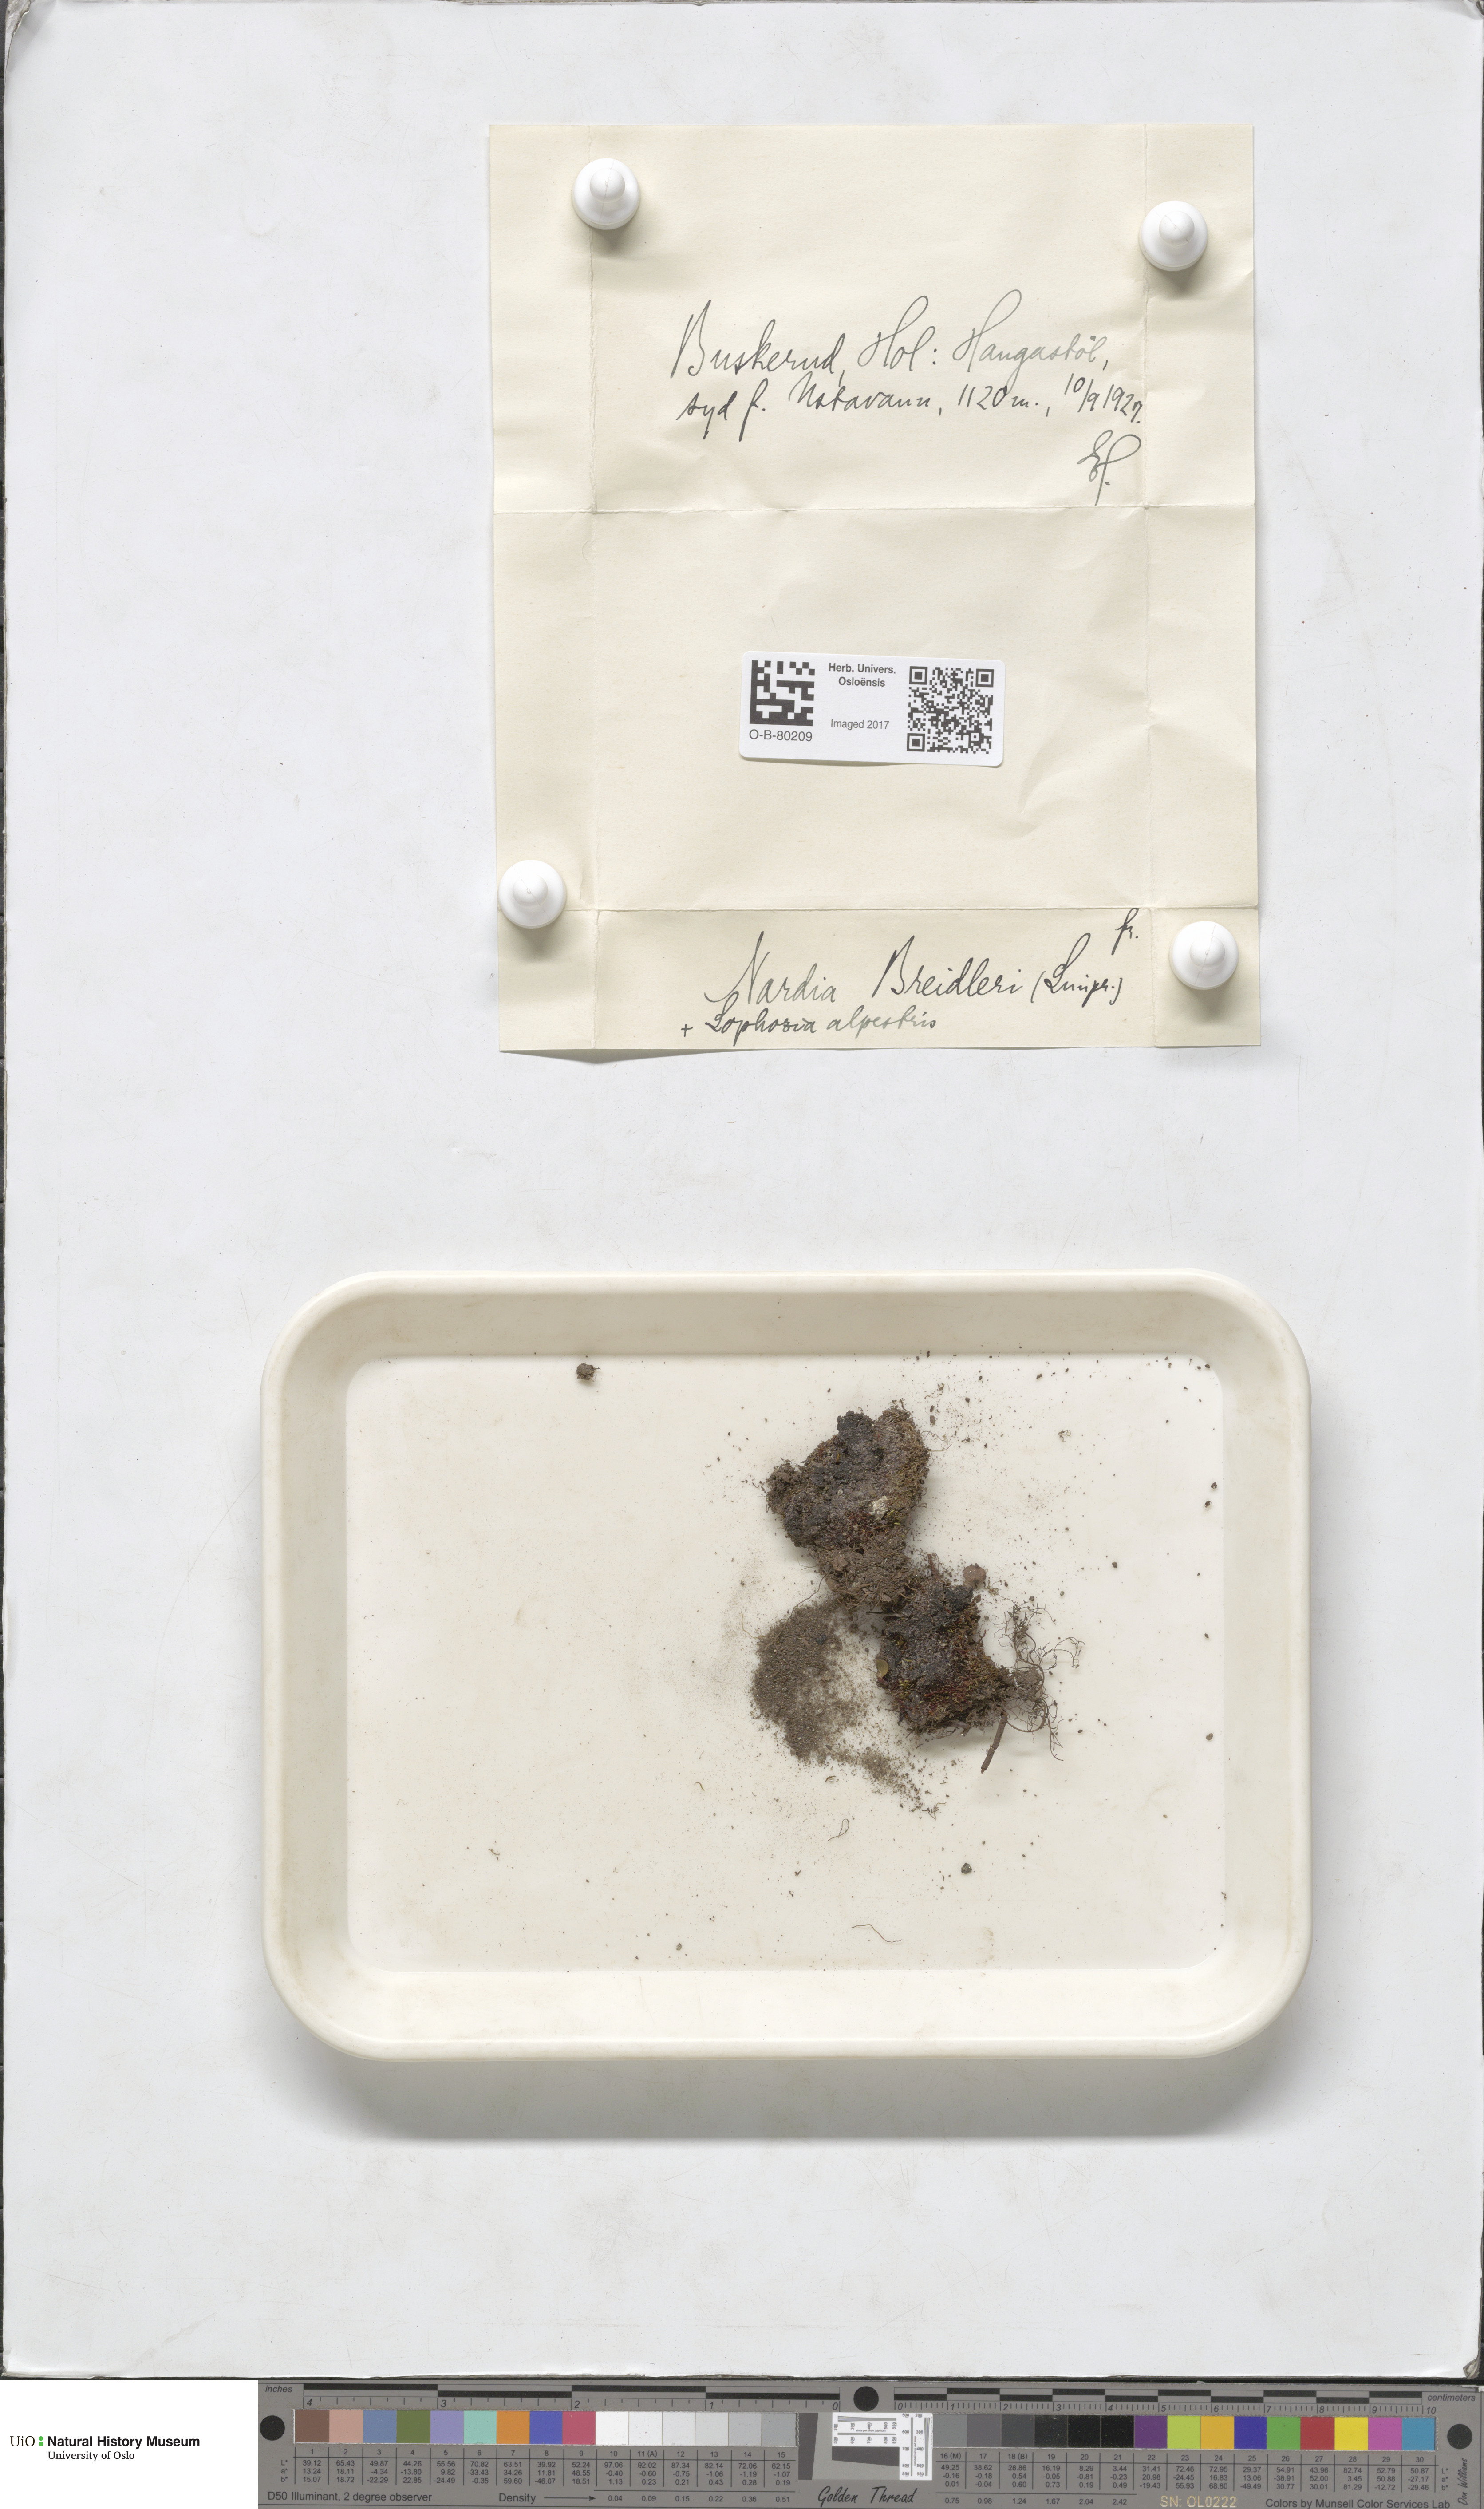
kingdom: Plantae
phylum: Marchantiophyta
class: Jungermanniopsida
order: Jungermanniales
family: Gymnomitriaceae
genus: Nardia
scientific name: Nardia breidleri
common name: Book flapwort
